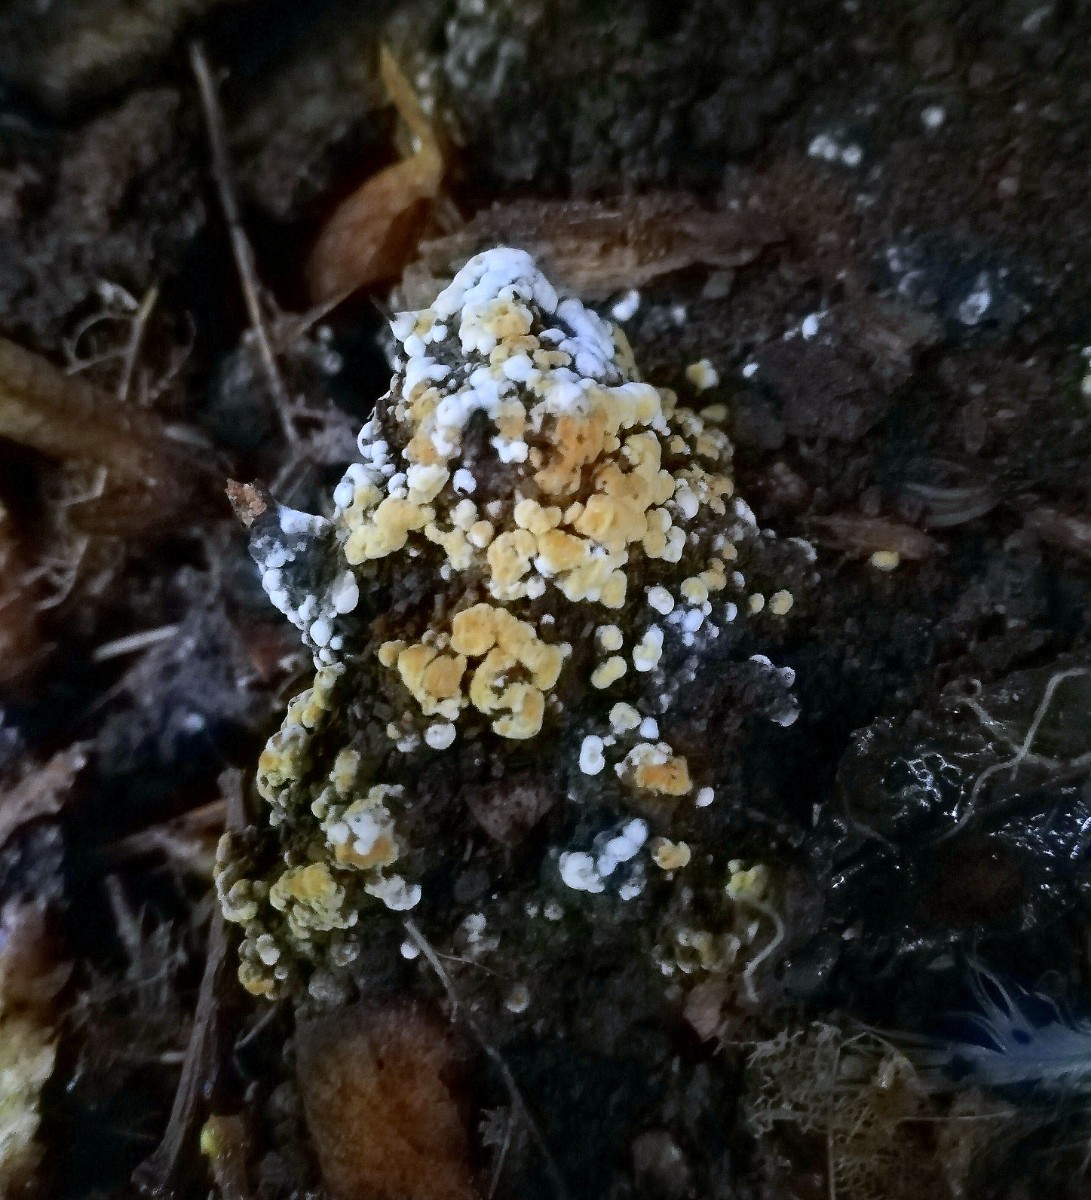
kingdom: Fungi
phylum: Basidiomycota
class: Agaricomycetes
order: Cantharellales
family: Botryobasidiaceae
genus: Botryobasidium
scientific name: Botryobasidium aureum
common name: gylden spindhinde
